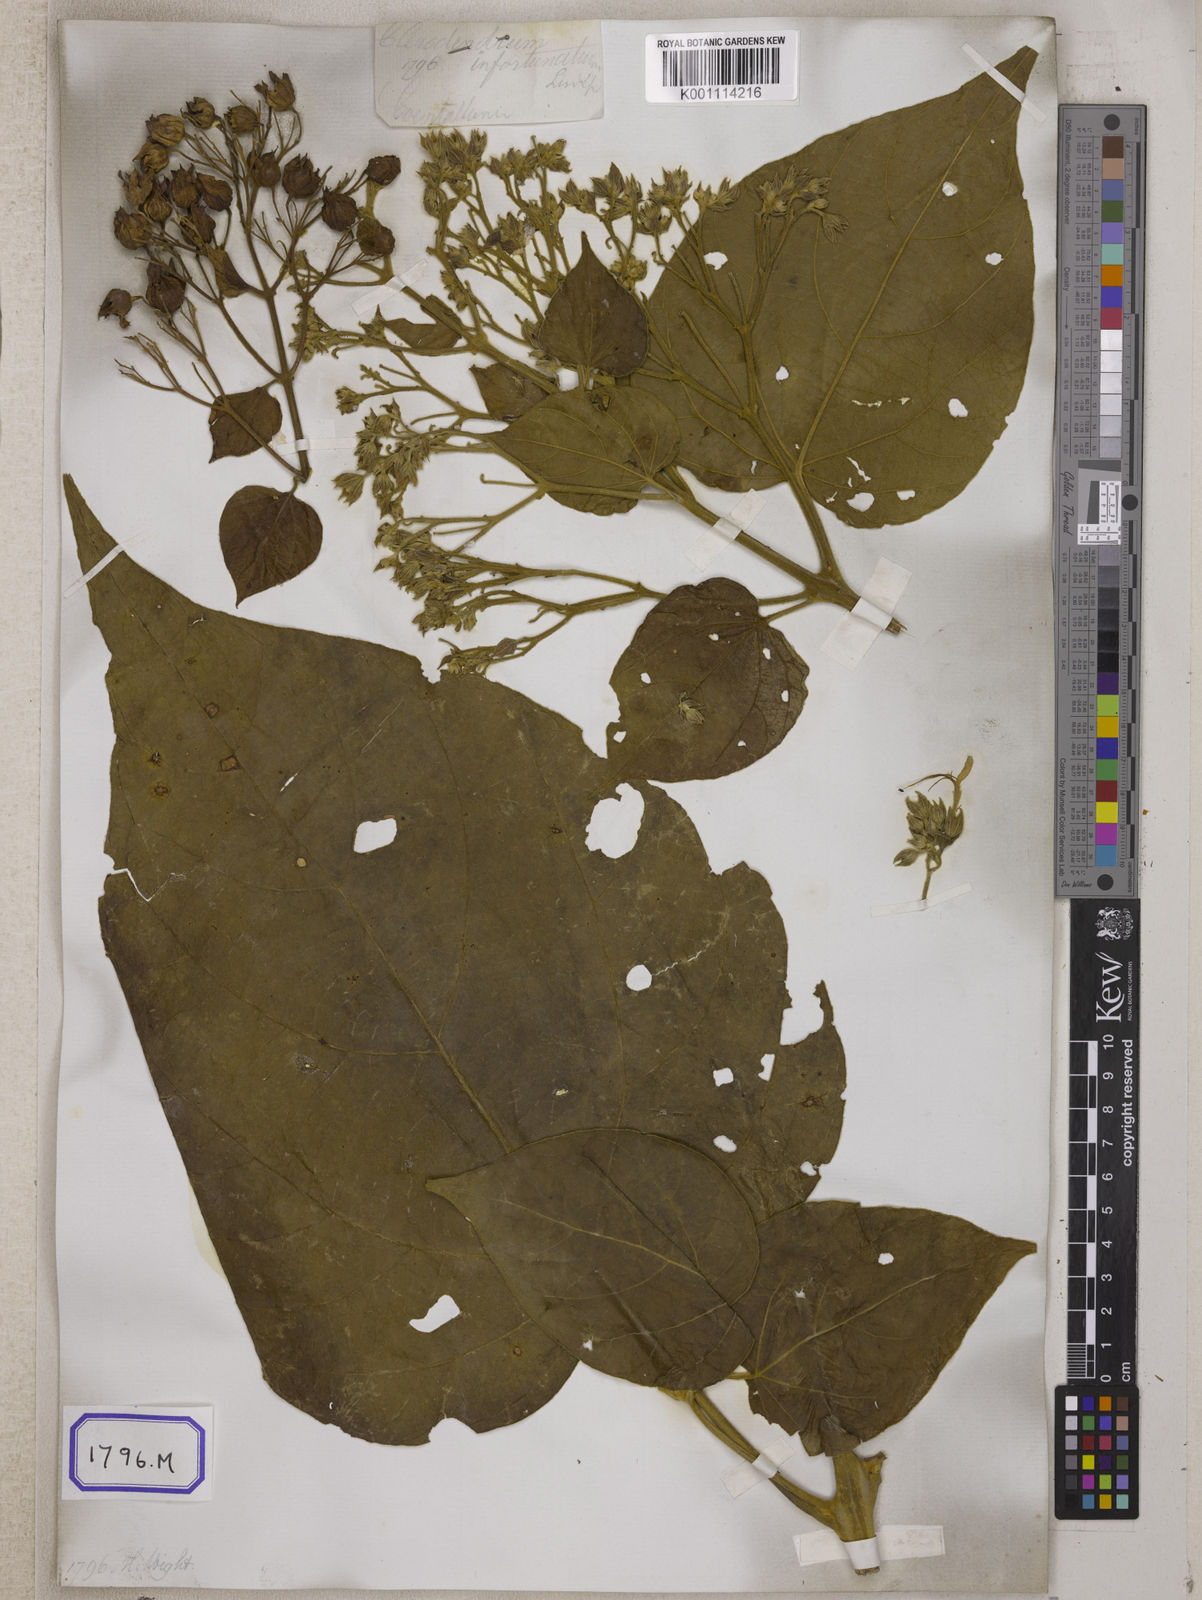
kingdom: Plantae
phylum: Tracheophyta
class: Magnoliopsida
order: Lamiales
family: Lamiaceae
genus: Clerodendrum
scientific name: Clerodendrum infortunatum
